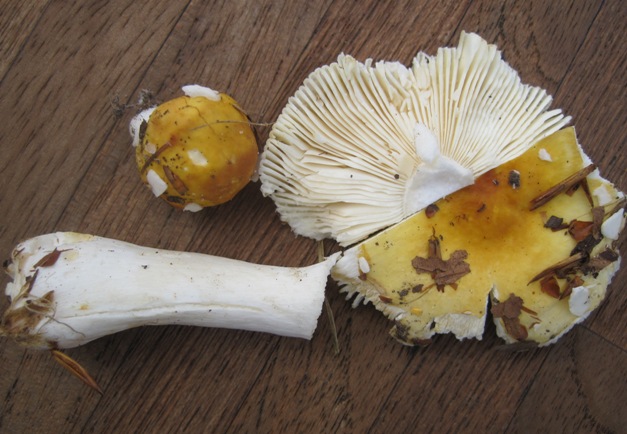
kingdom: Fungi
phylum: Basidiomycota
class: Agaricomycetes
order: Russulales
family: Russulaceae
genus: Russula
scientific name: Russula solaris
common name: sol-skørhat
